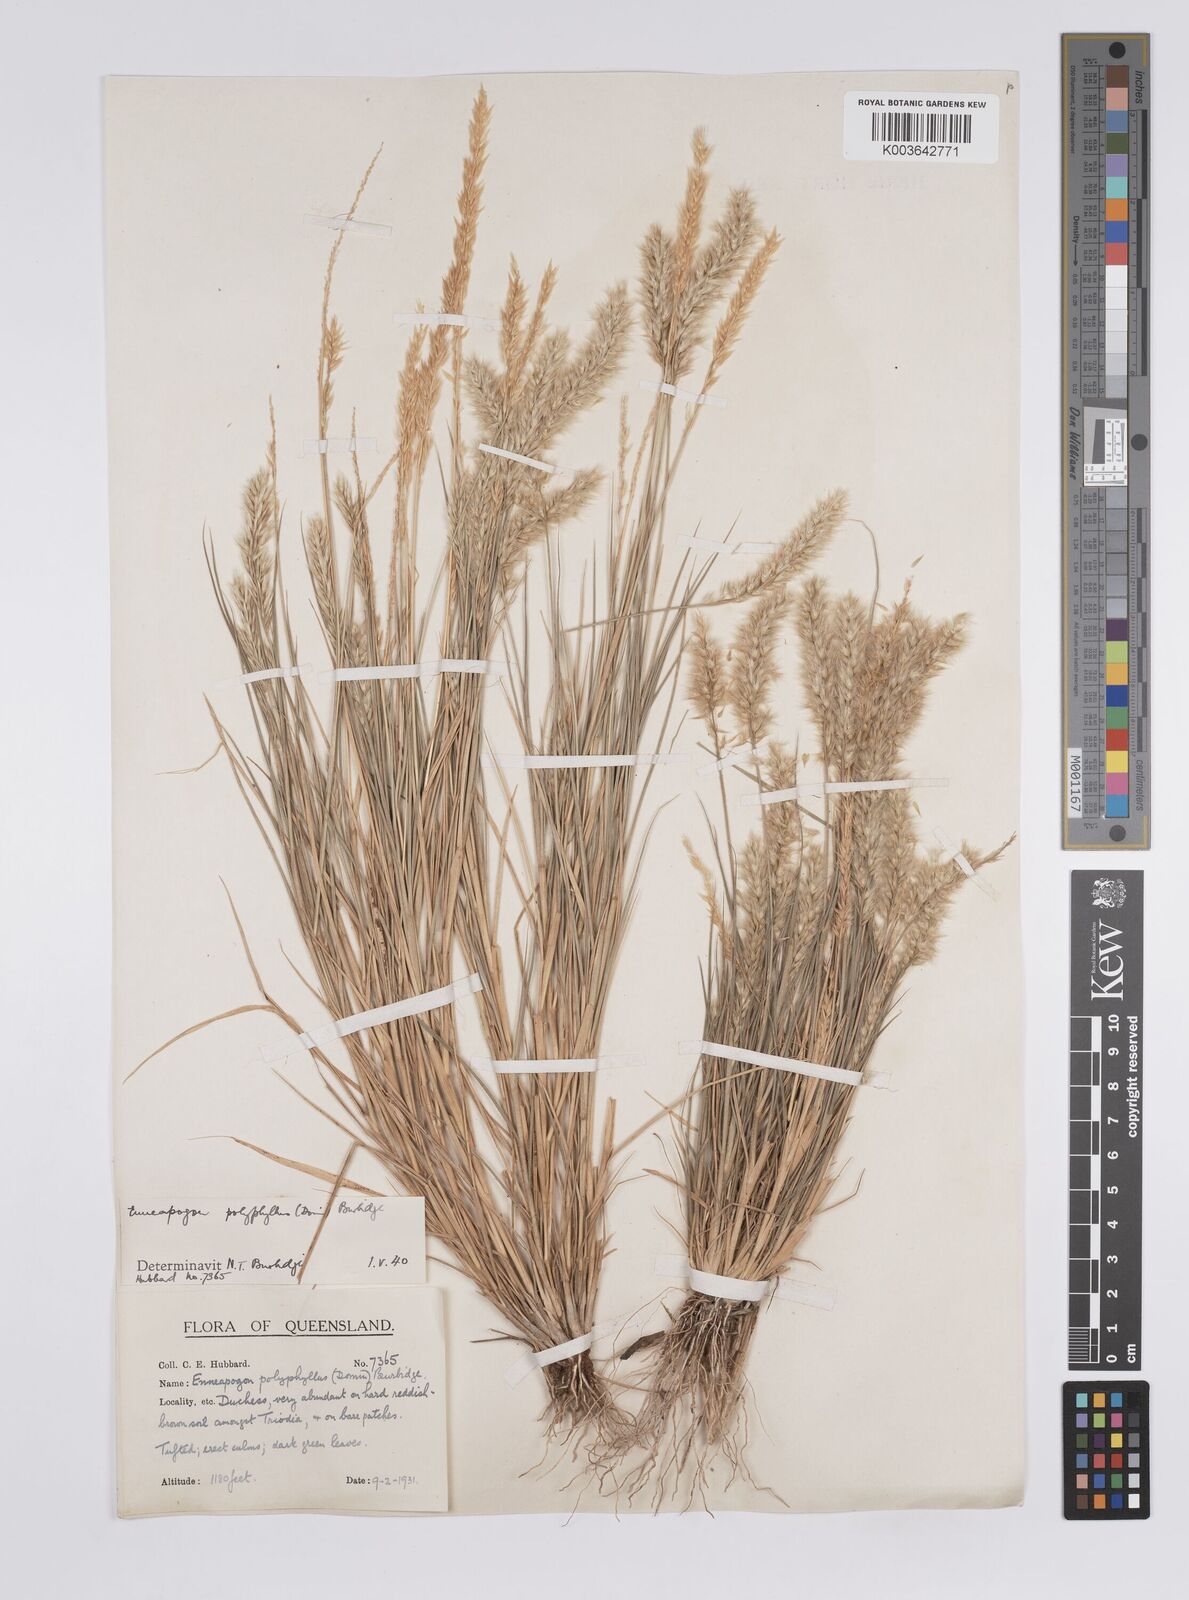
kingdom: Plantae
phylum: Tracheophyta
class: Liliopsida
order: Poales
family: Poaceae
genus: Enneapogon
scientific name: Enneapogon polyphyllus
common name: Leafy nineawn
